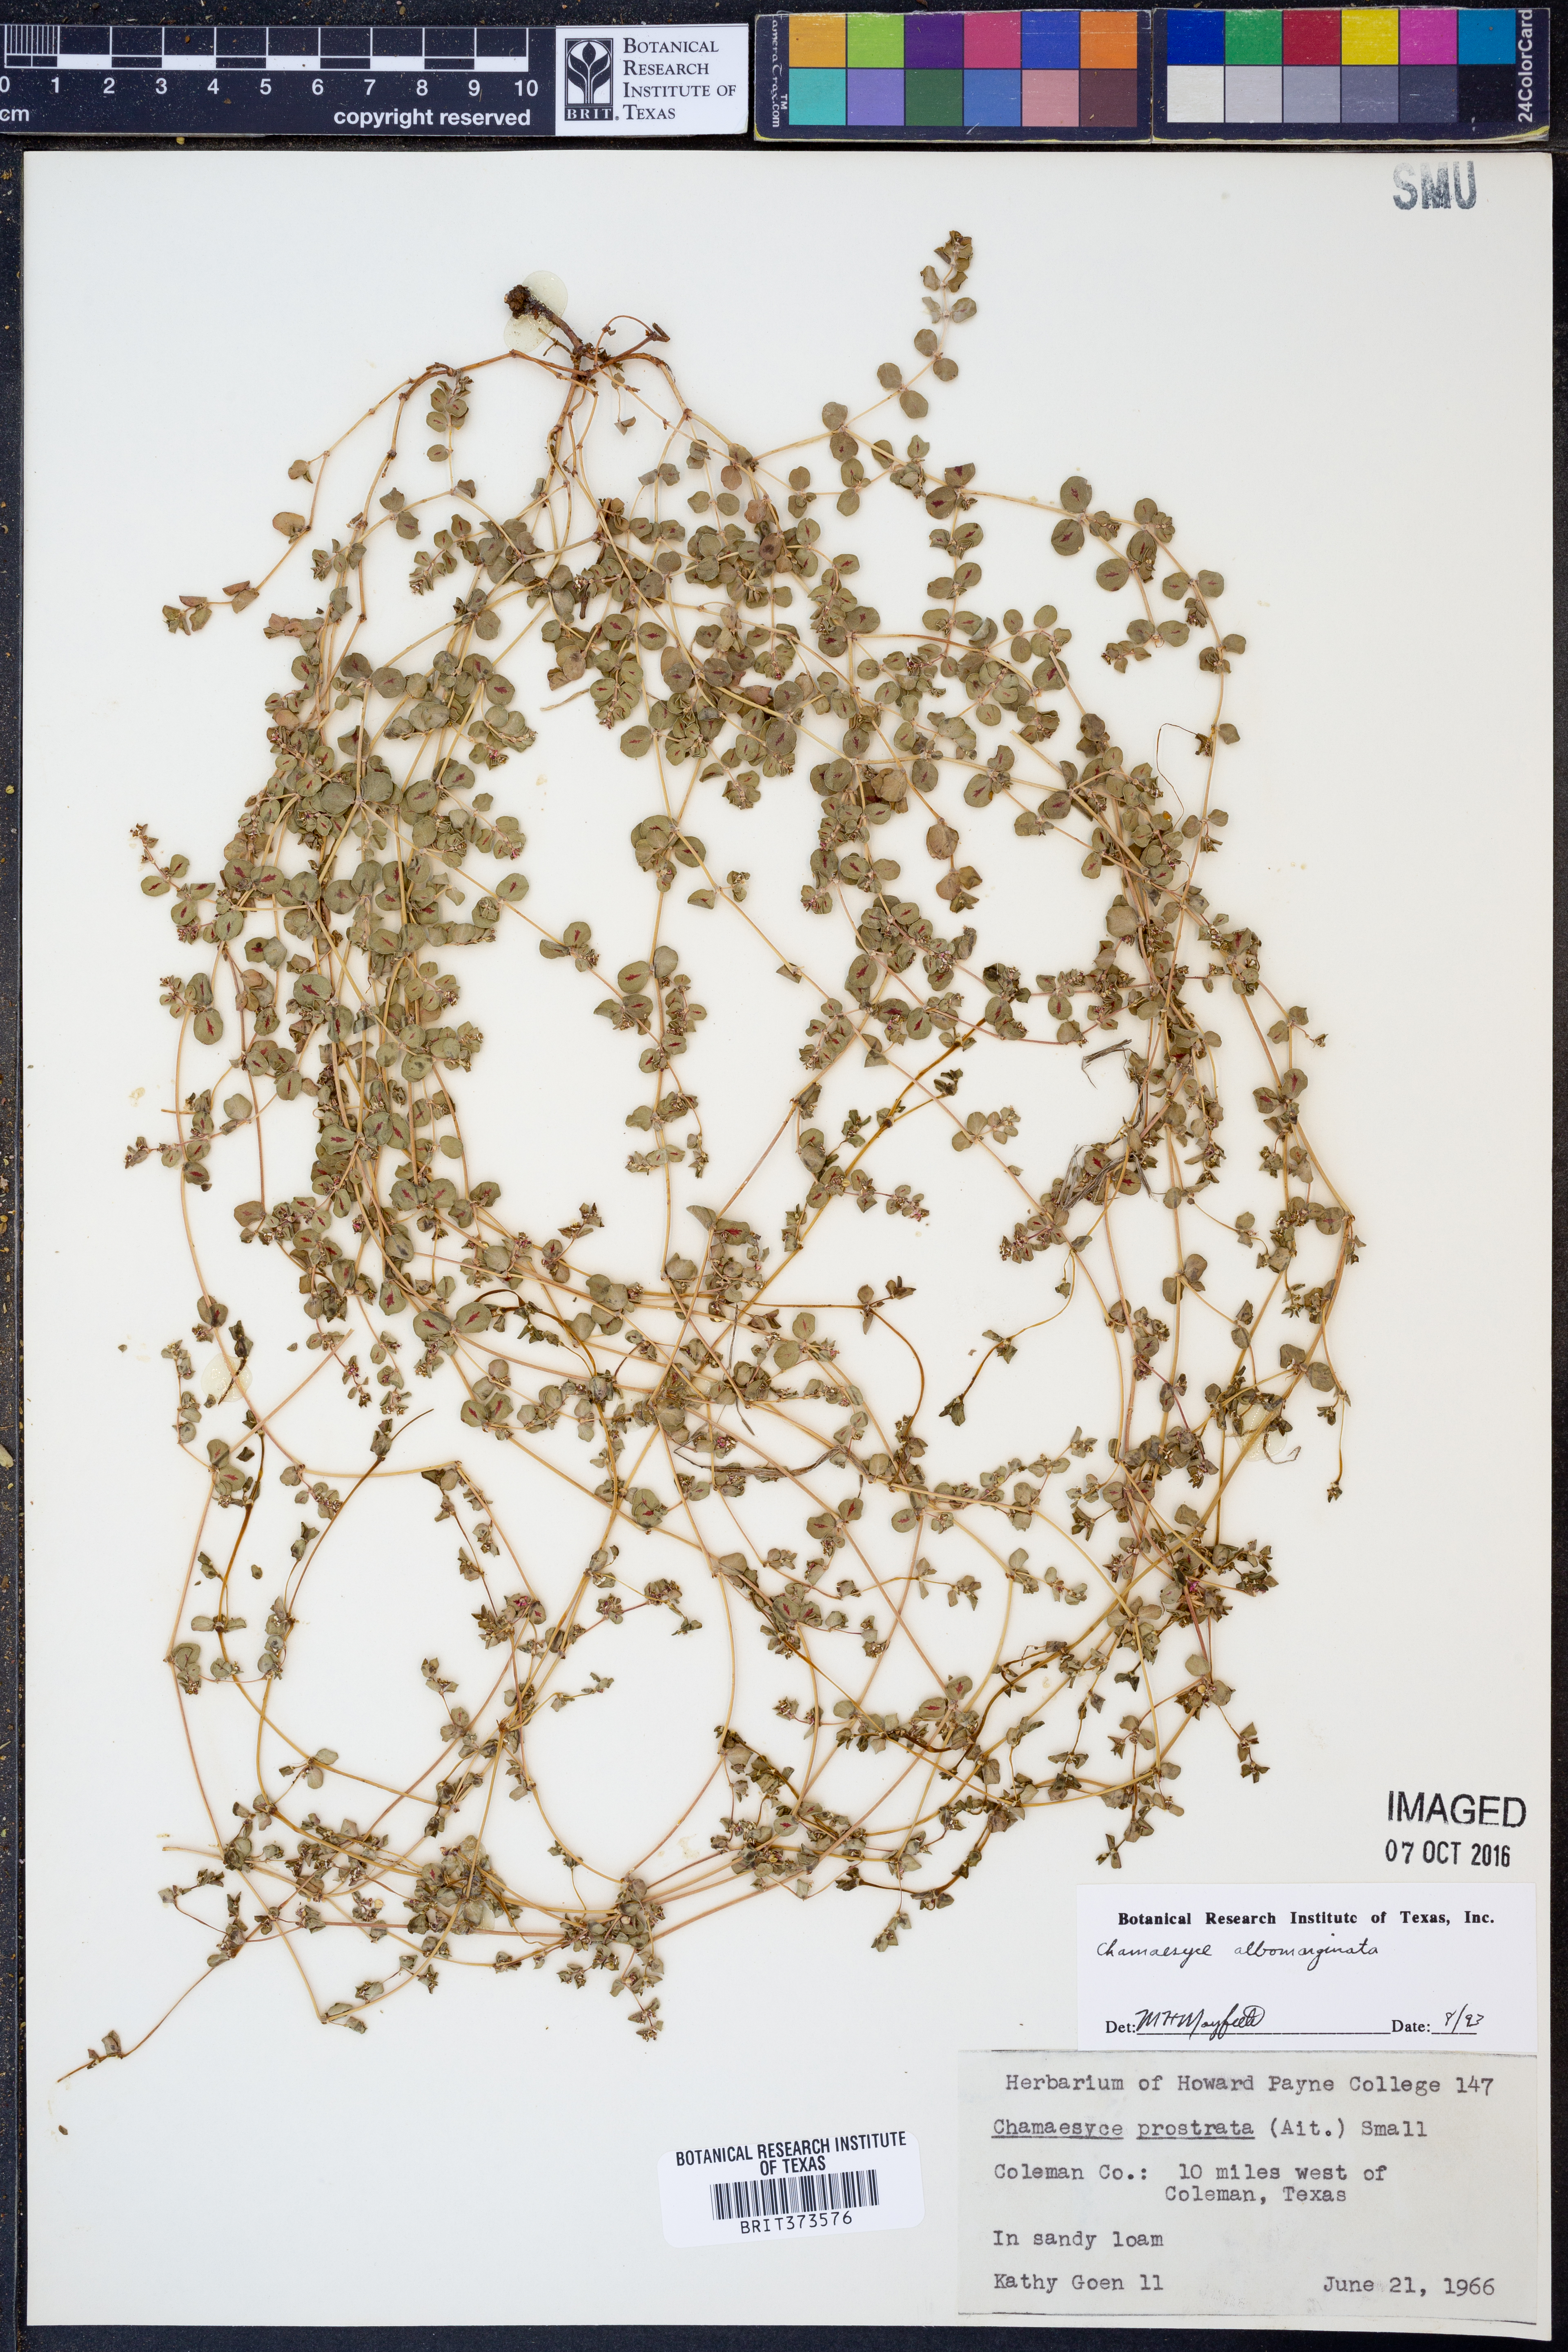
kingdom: Plantae
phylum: Tracheophyta
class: Magnoliopsida
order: Malpighiales
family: Euphorbiaceae
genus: Euphorbia
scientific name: Euphorbia albomarginata
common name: Whitemargin sandmat
